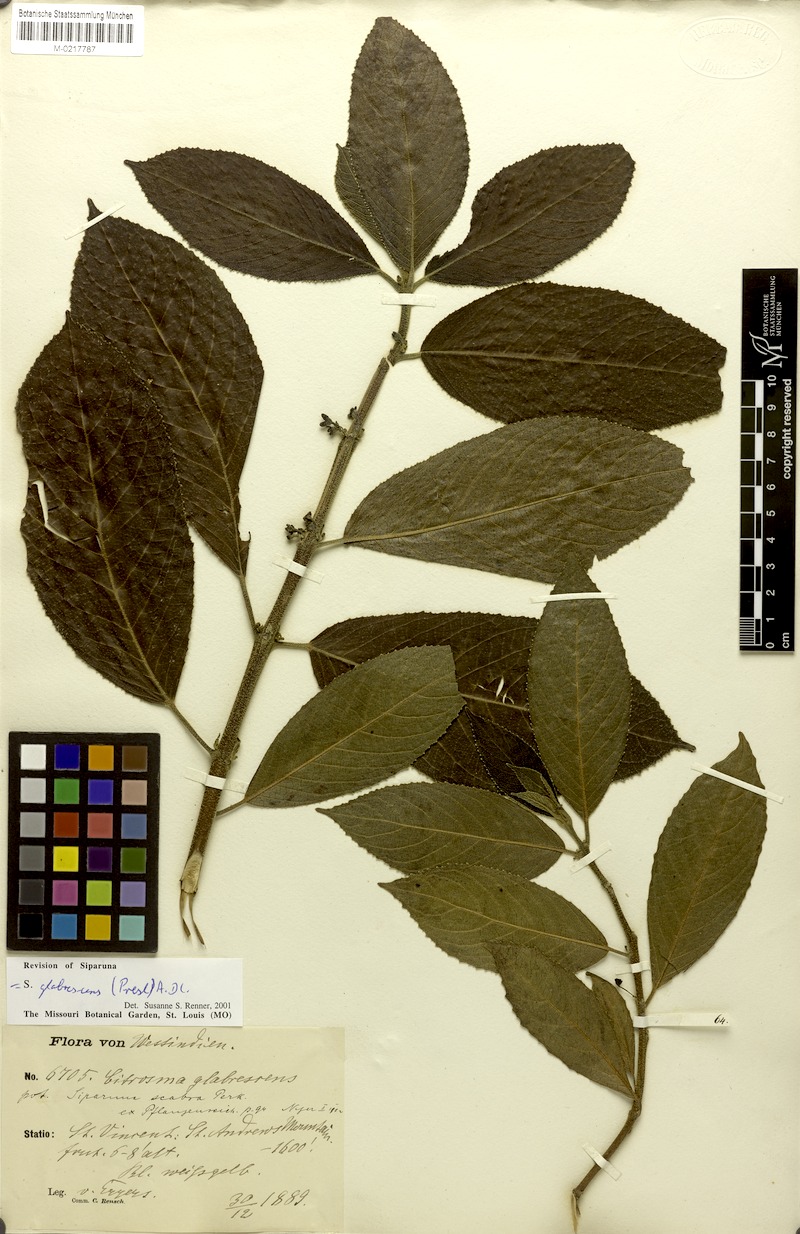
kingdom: Plantae
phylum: Tracheophyta
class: Magnoliopsida
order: Laurales
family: Siparunaceae
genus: Siparuna
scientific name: Siparuna glabrescens
